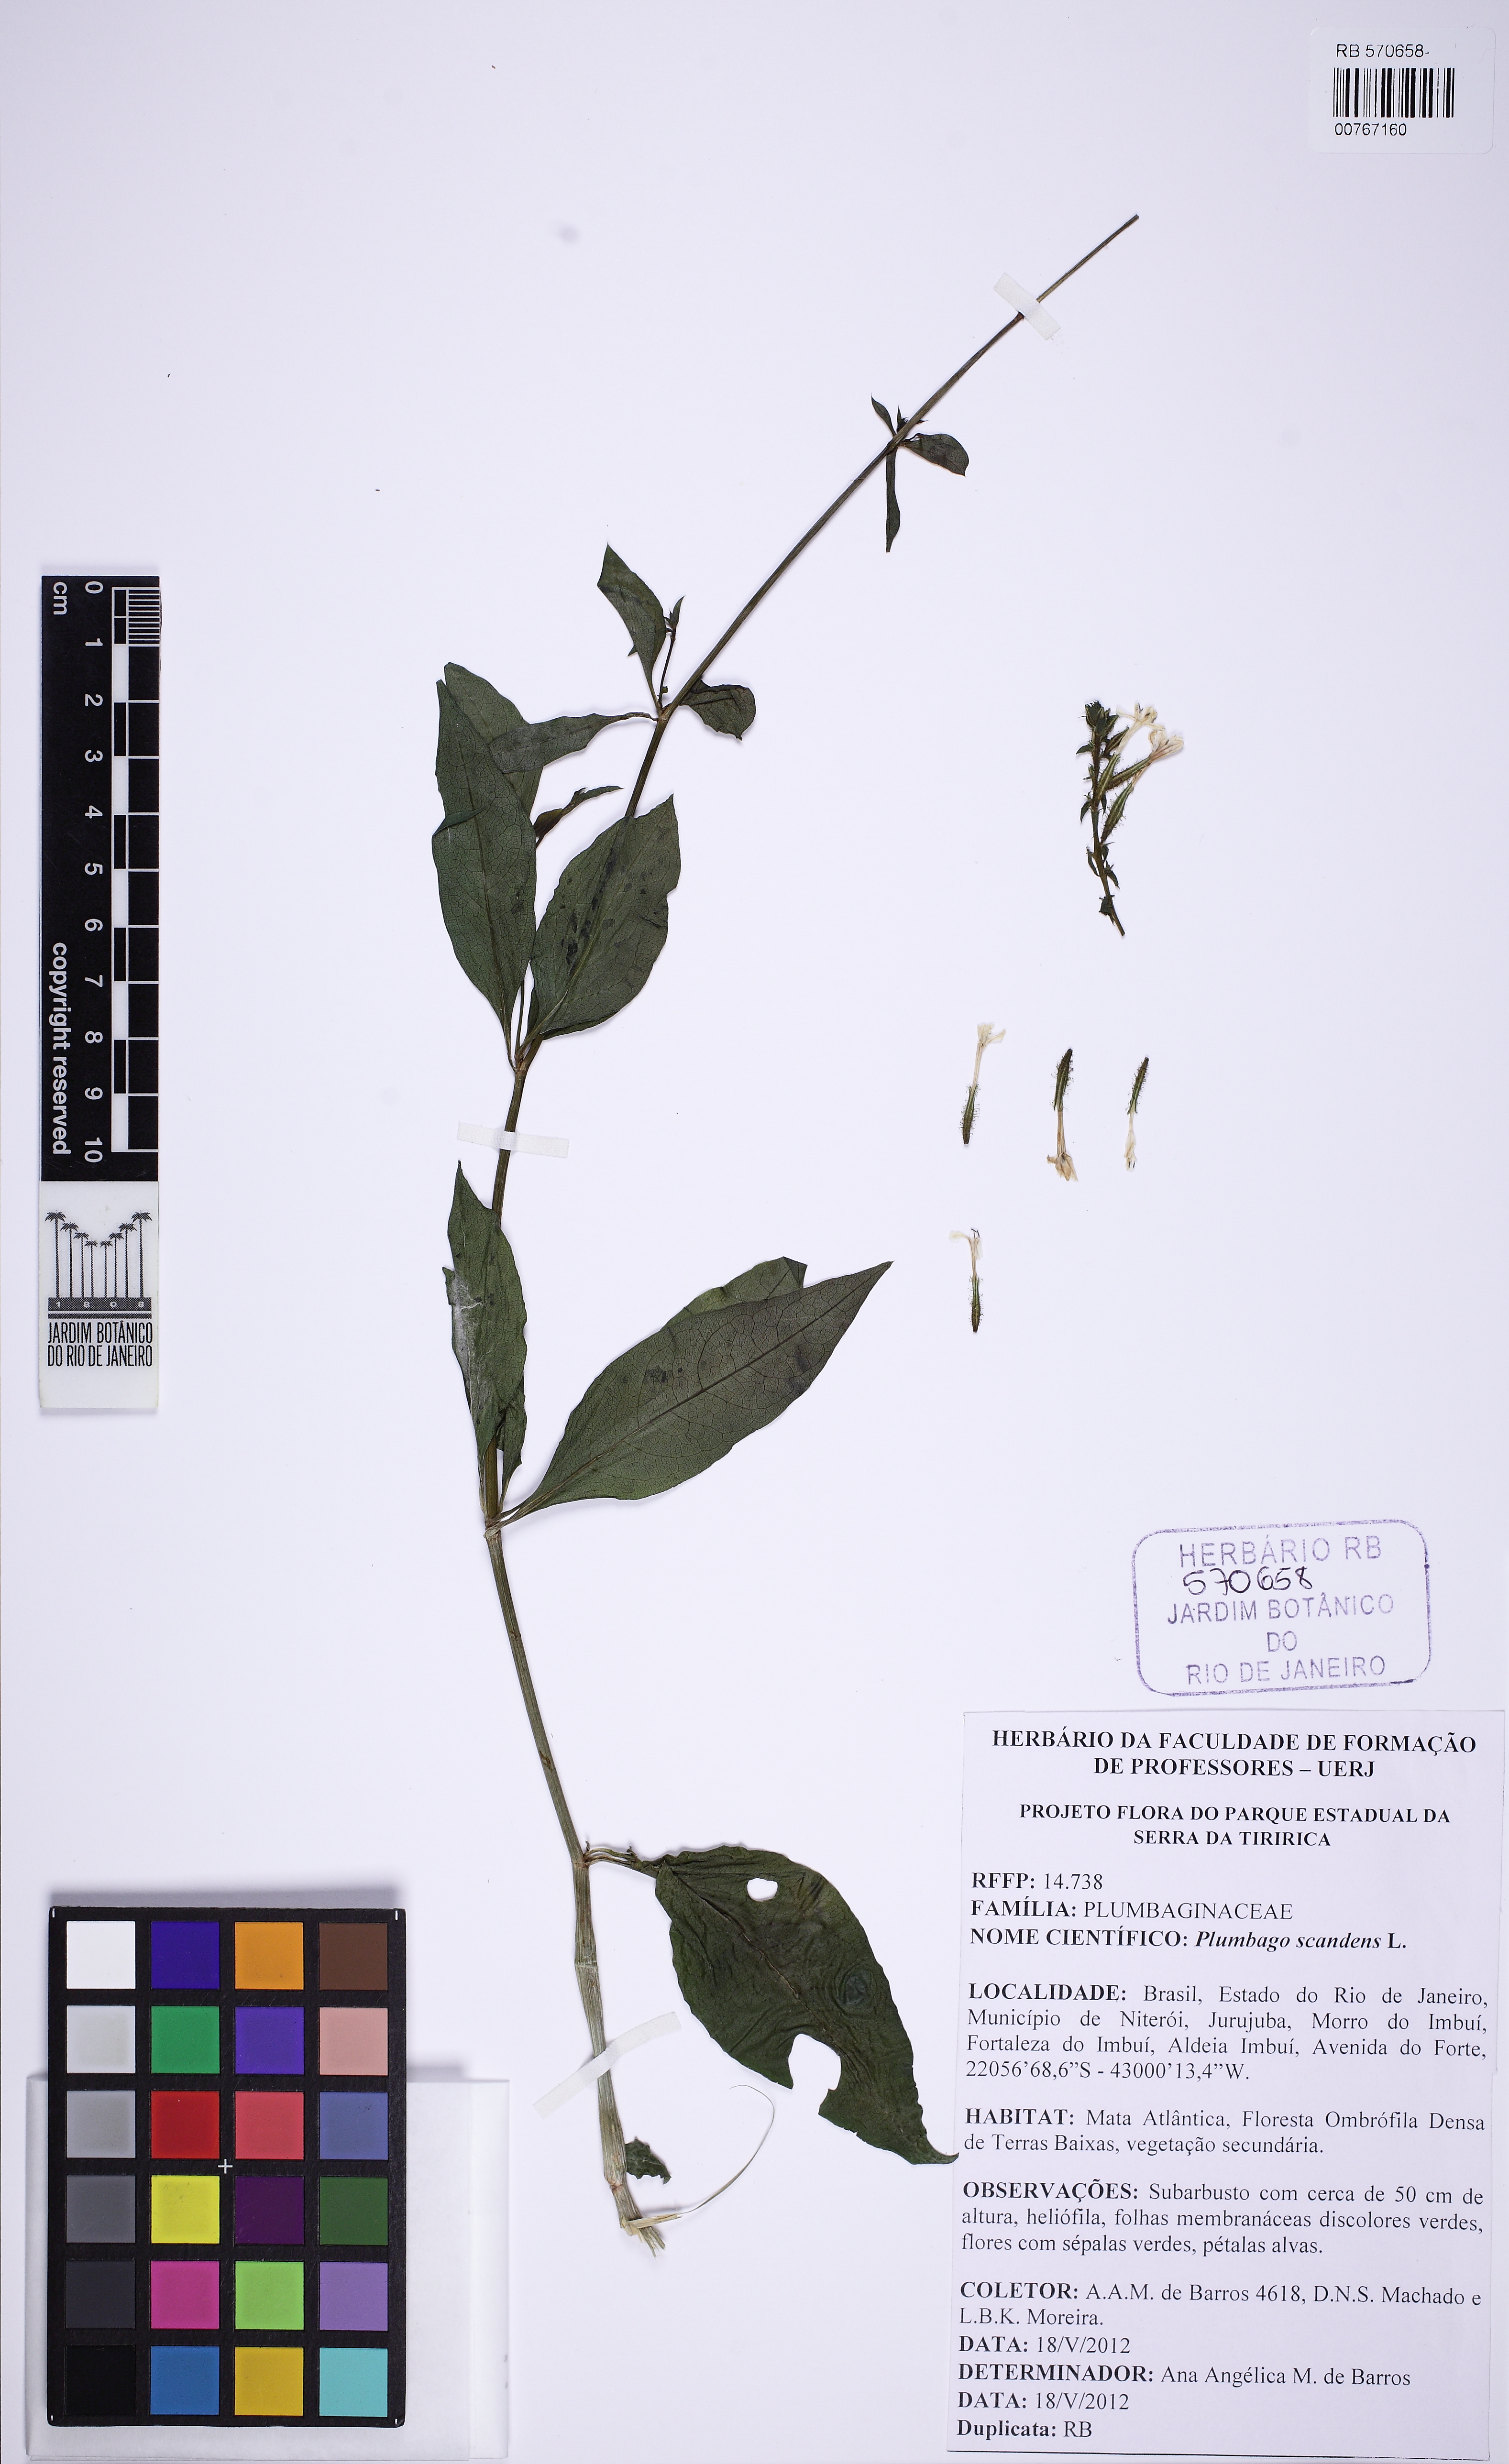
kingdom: Plantae
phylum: Tracheophyta
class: Magnoliopsida
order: Caryophyllales
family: Plumbaginaceae
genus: Plumbago
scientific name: Plumbago zeylanica
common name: Doctorbush
